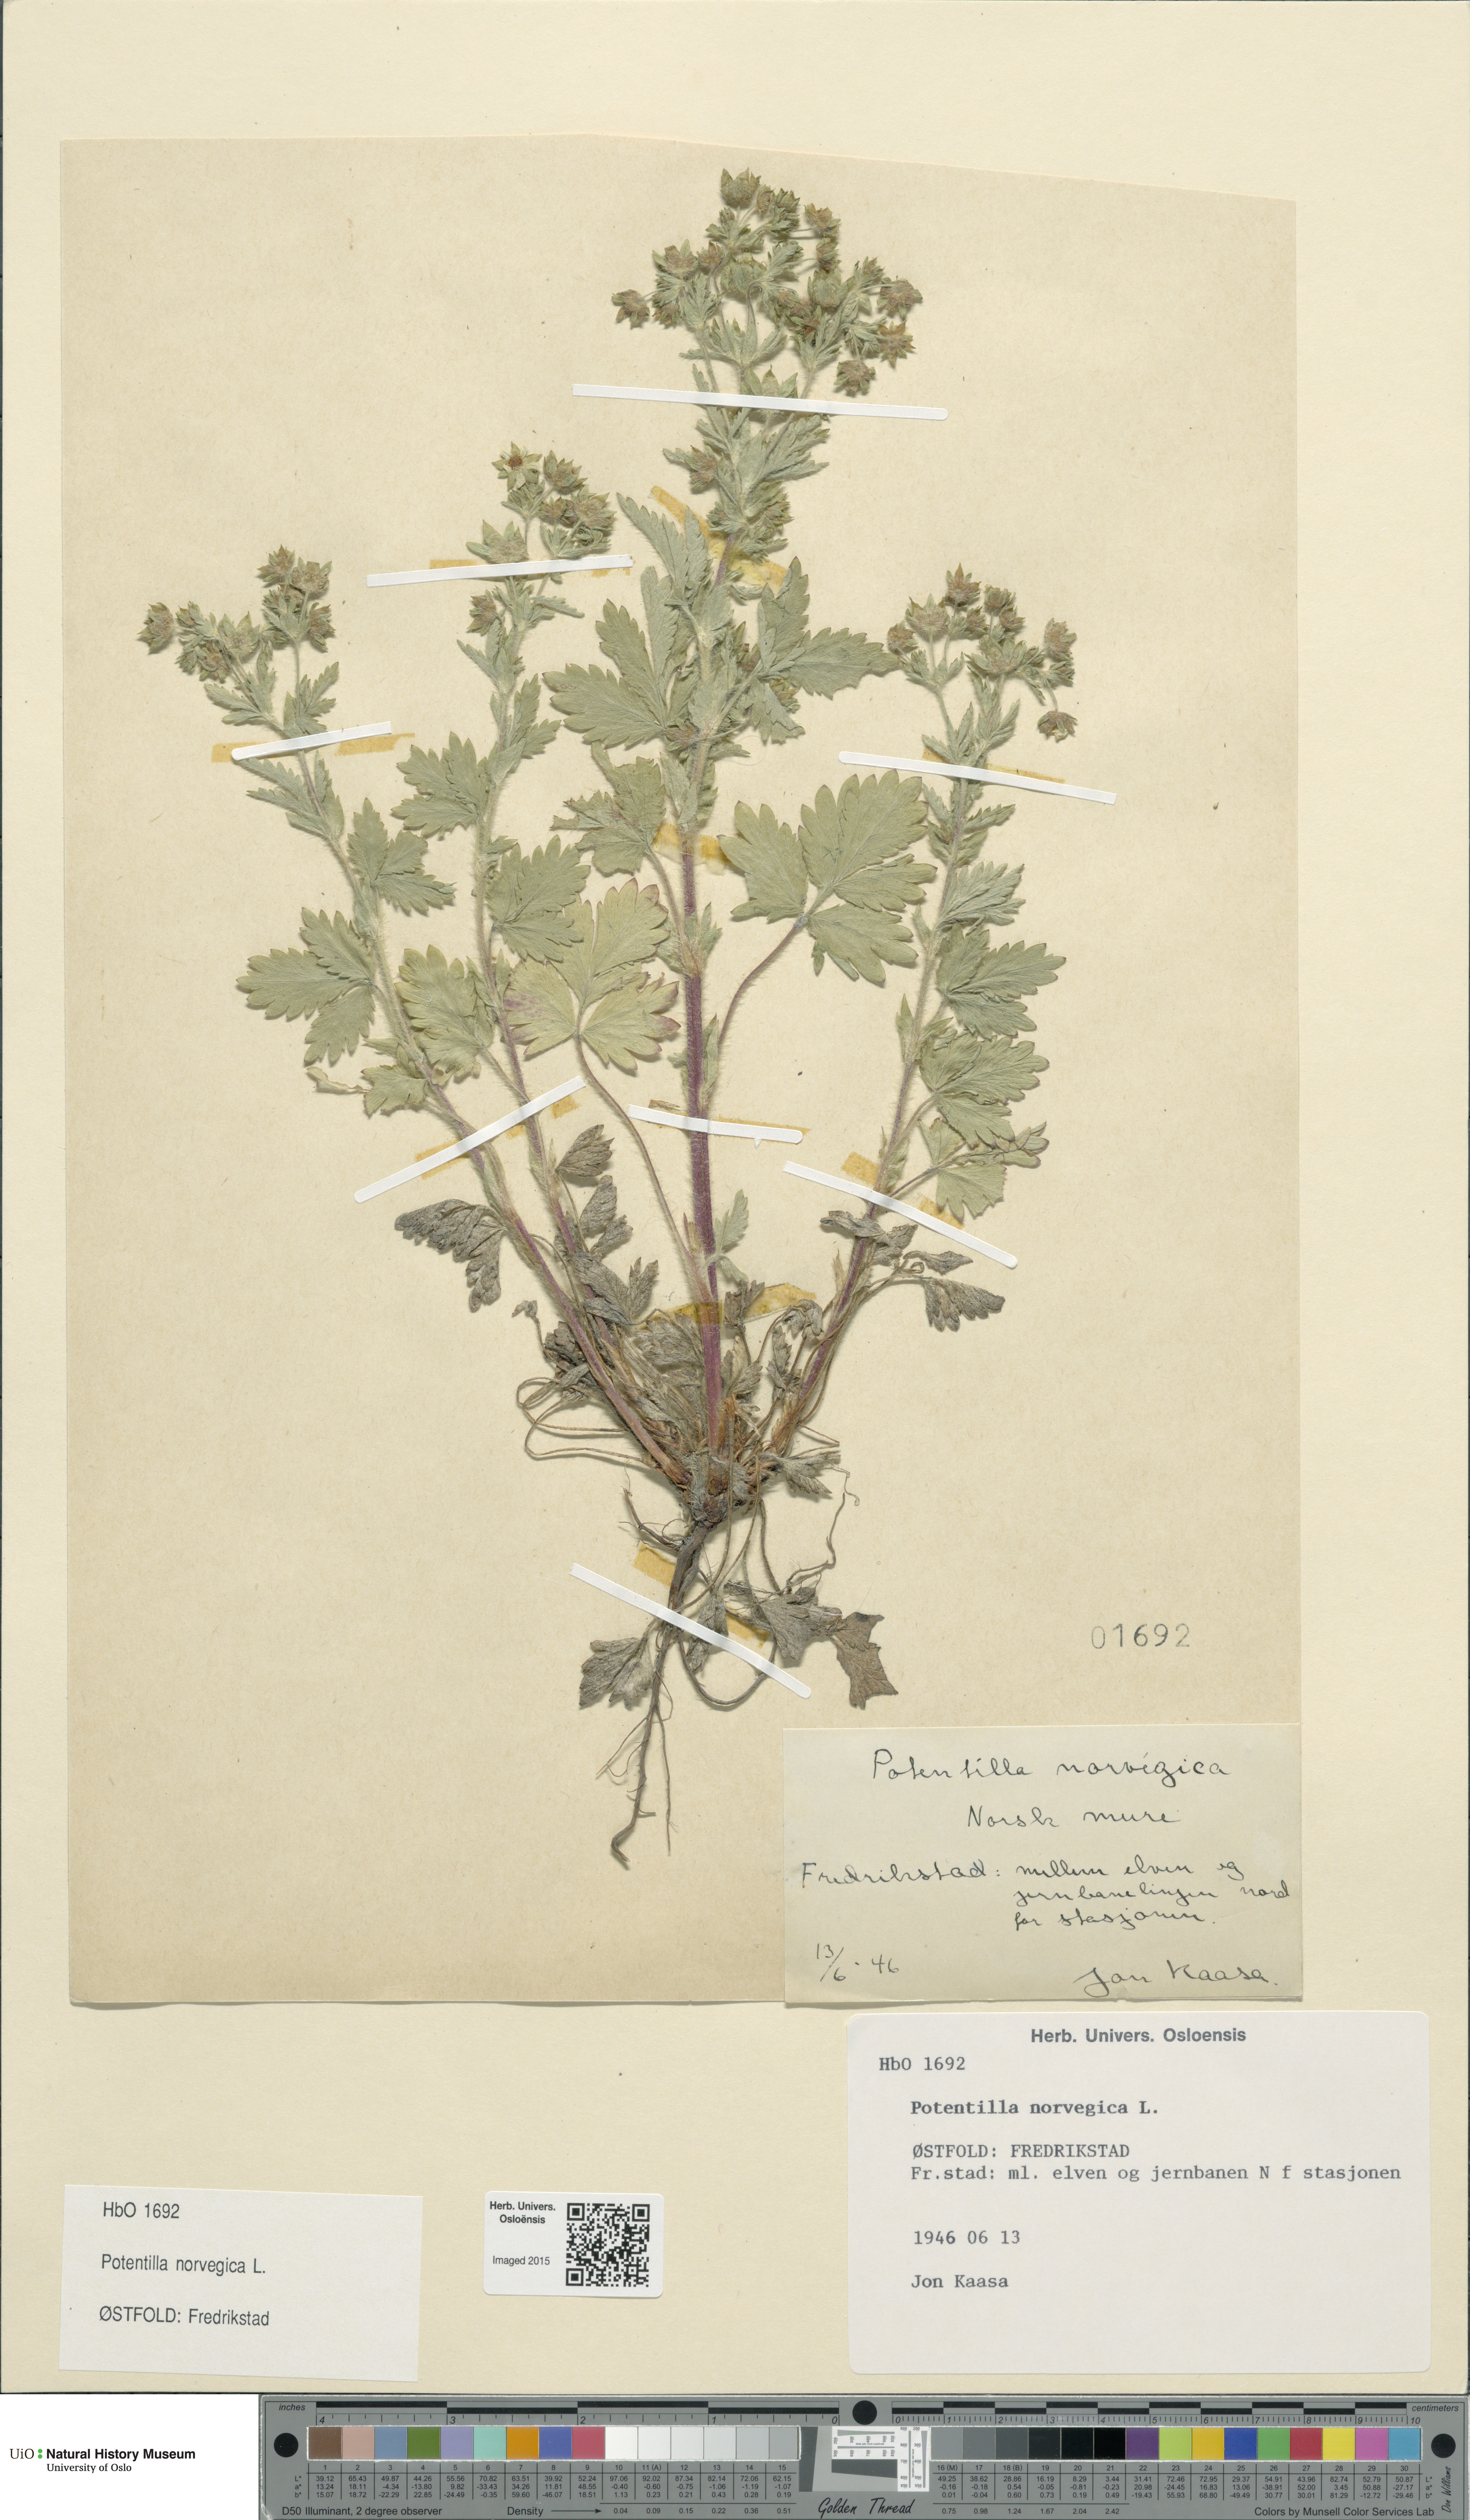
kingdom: Plantae
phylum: Tracheophyta
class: Magnoliopsida
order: Rosales
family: Rosaceae
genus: Potentilla
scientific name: Potentilla norvegica
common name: Ternate-leaved cinquefoil
